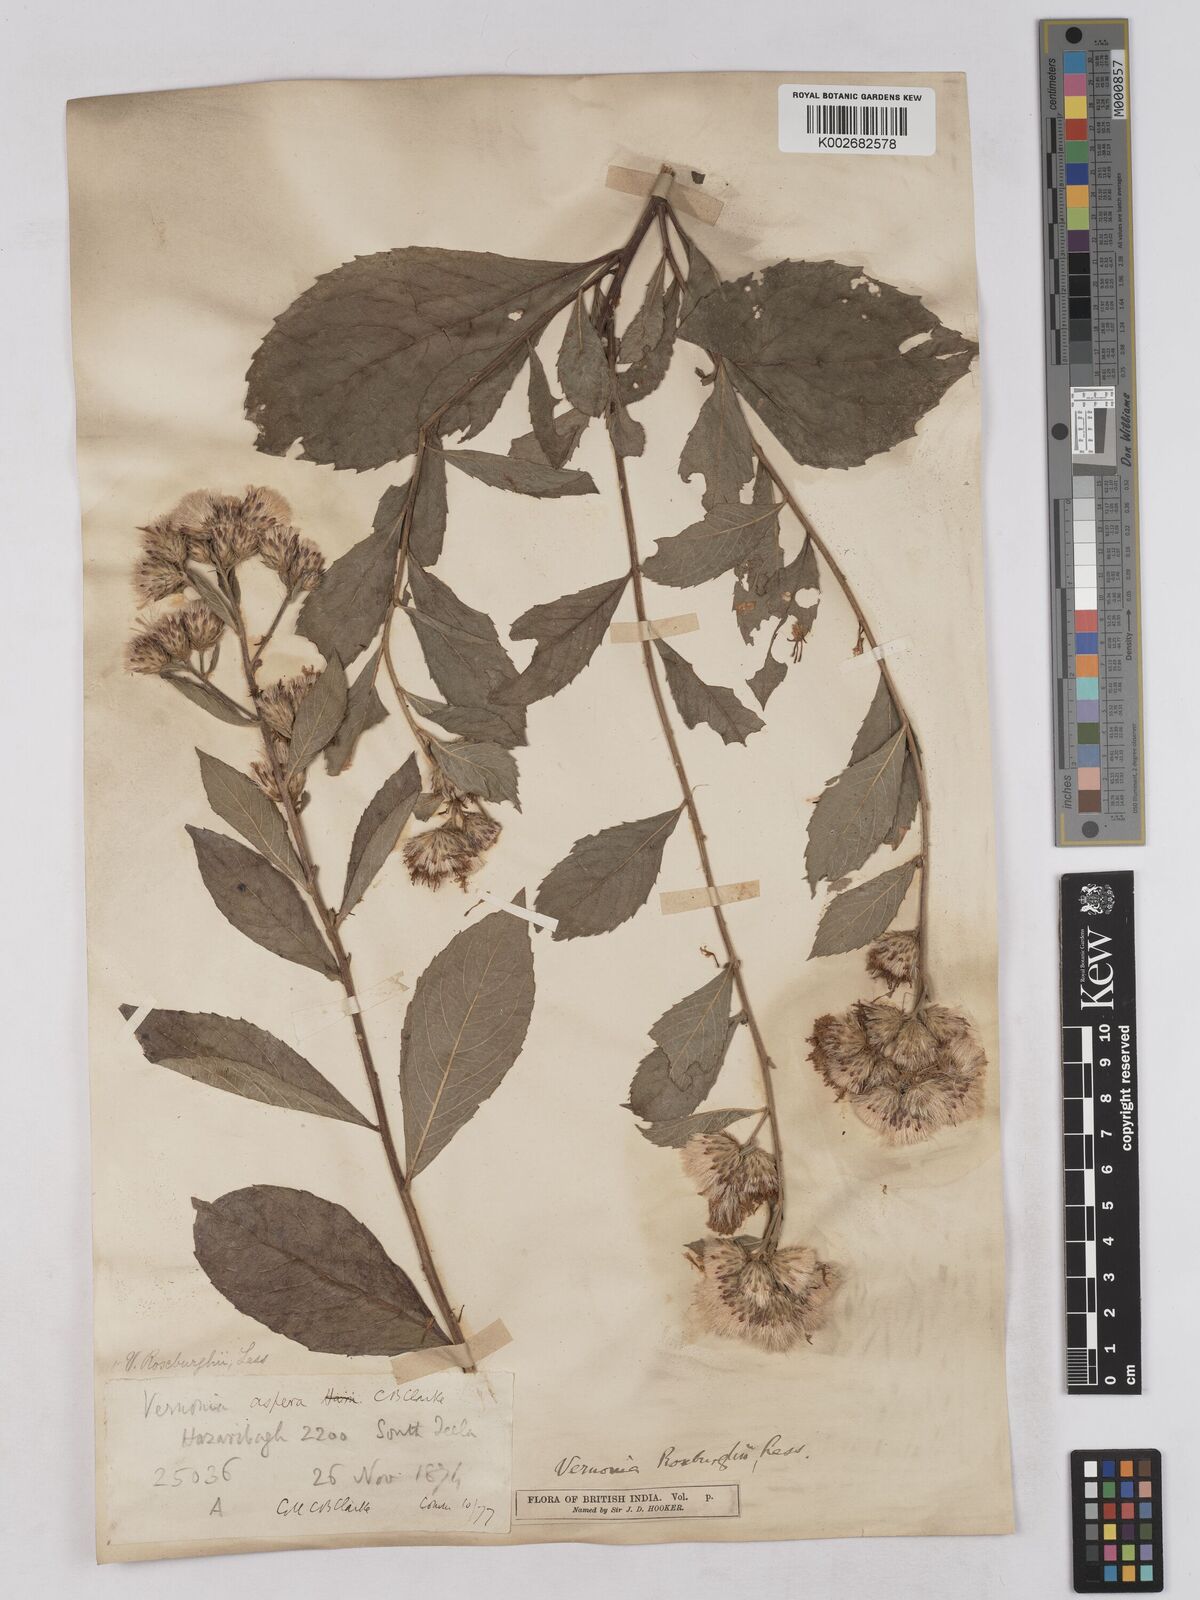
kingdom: Plantae
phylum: Tracheophyta
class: Magnoliopsida
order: Asterales
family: Asteraceae
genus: Acilepis
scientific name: Acilepis aspera
